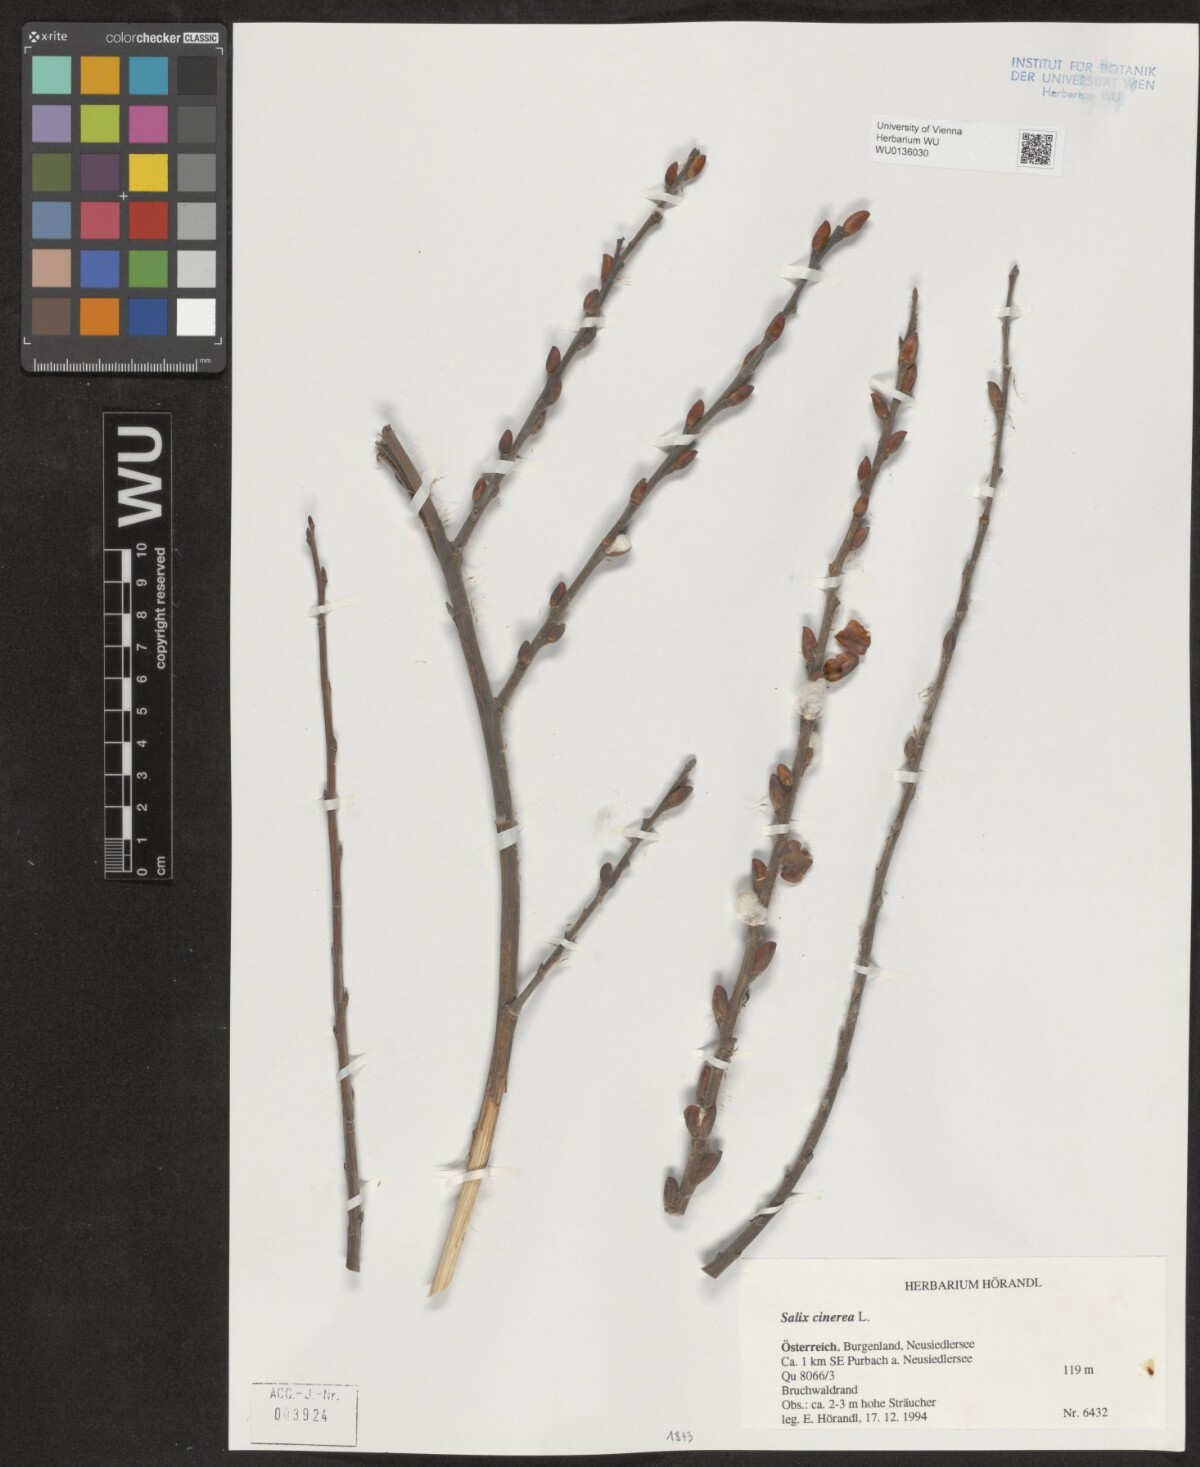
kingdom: Plantae
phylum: Tracheophyta
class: Magnoliopsida
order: Malpighiales
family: Salicaceae
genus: Salix
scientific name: Salix cinerea
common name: Common sallow
